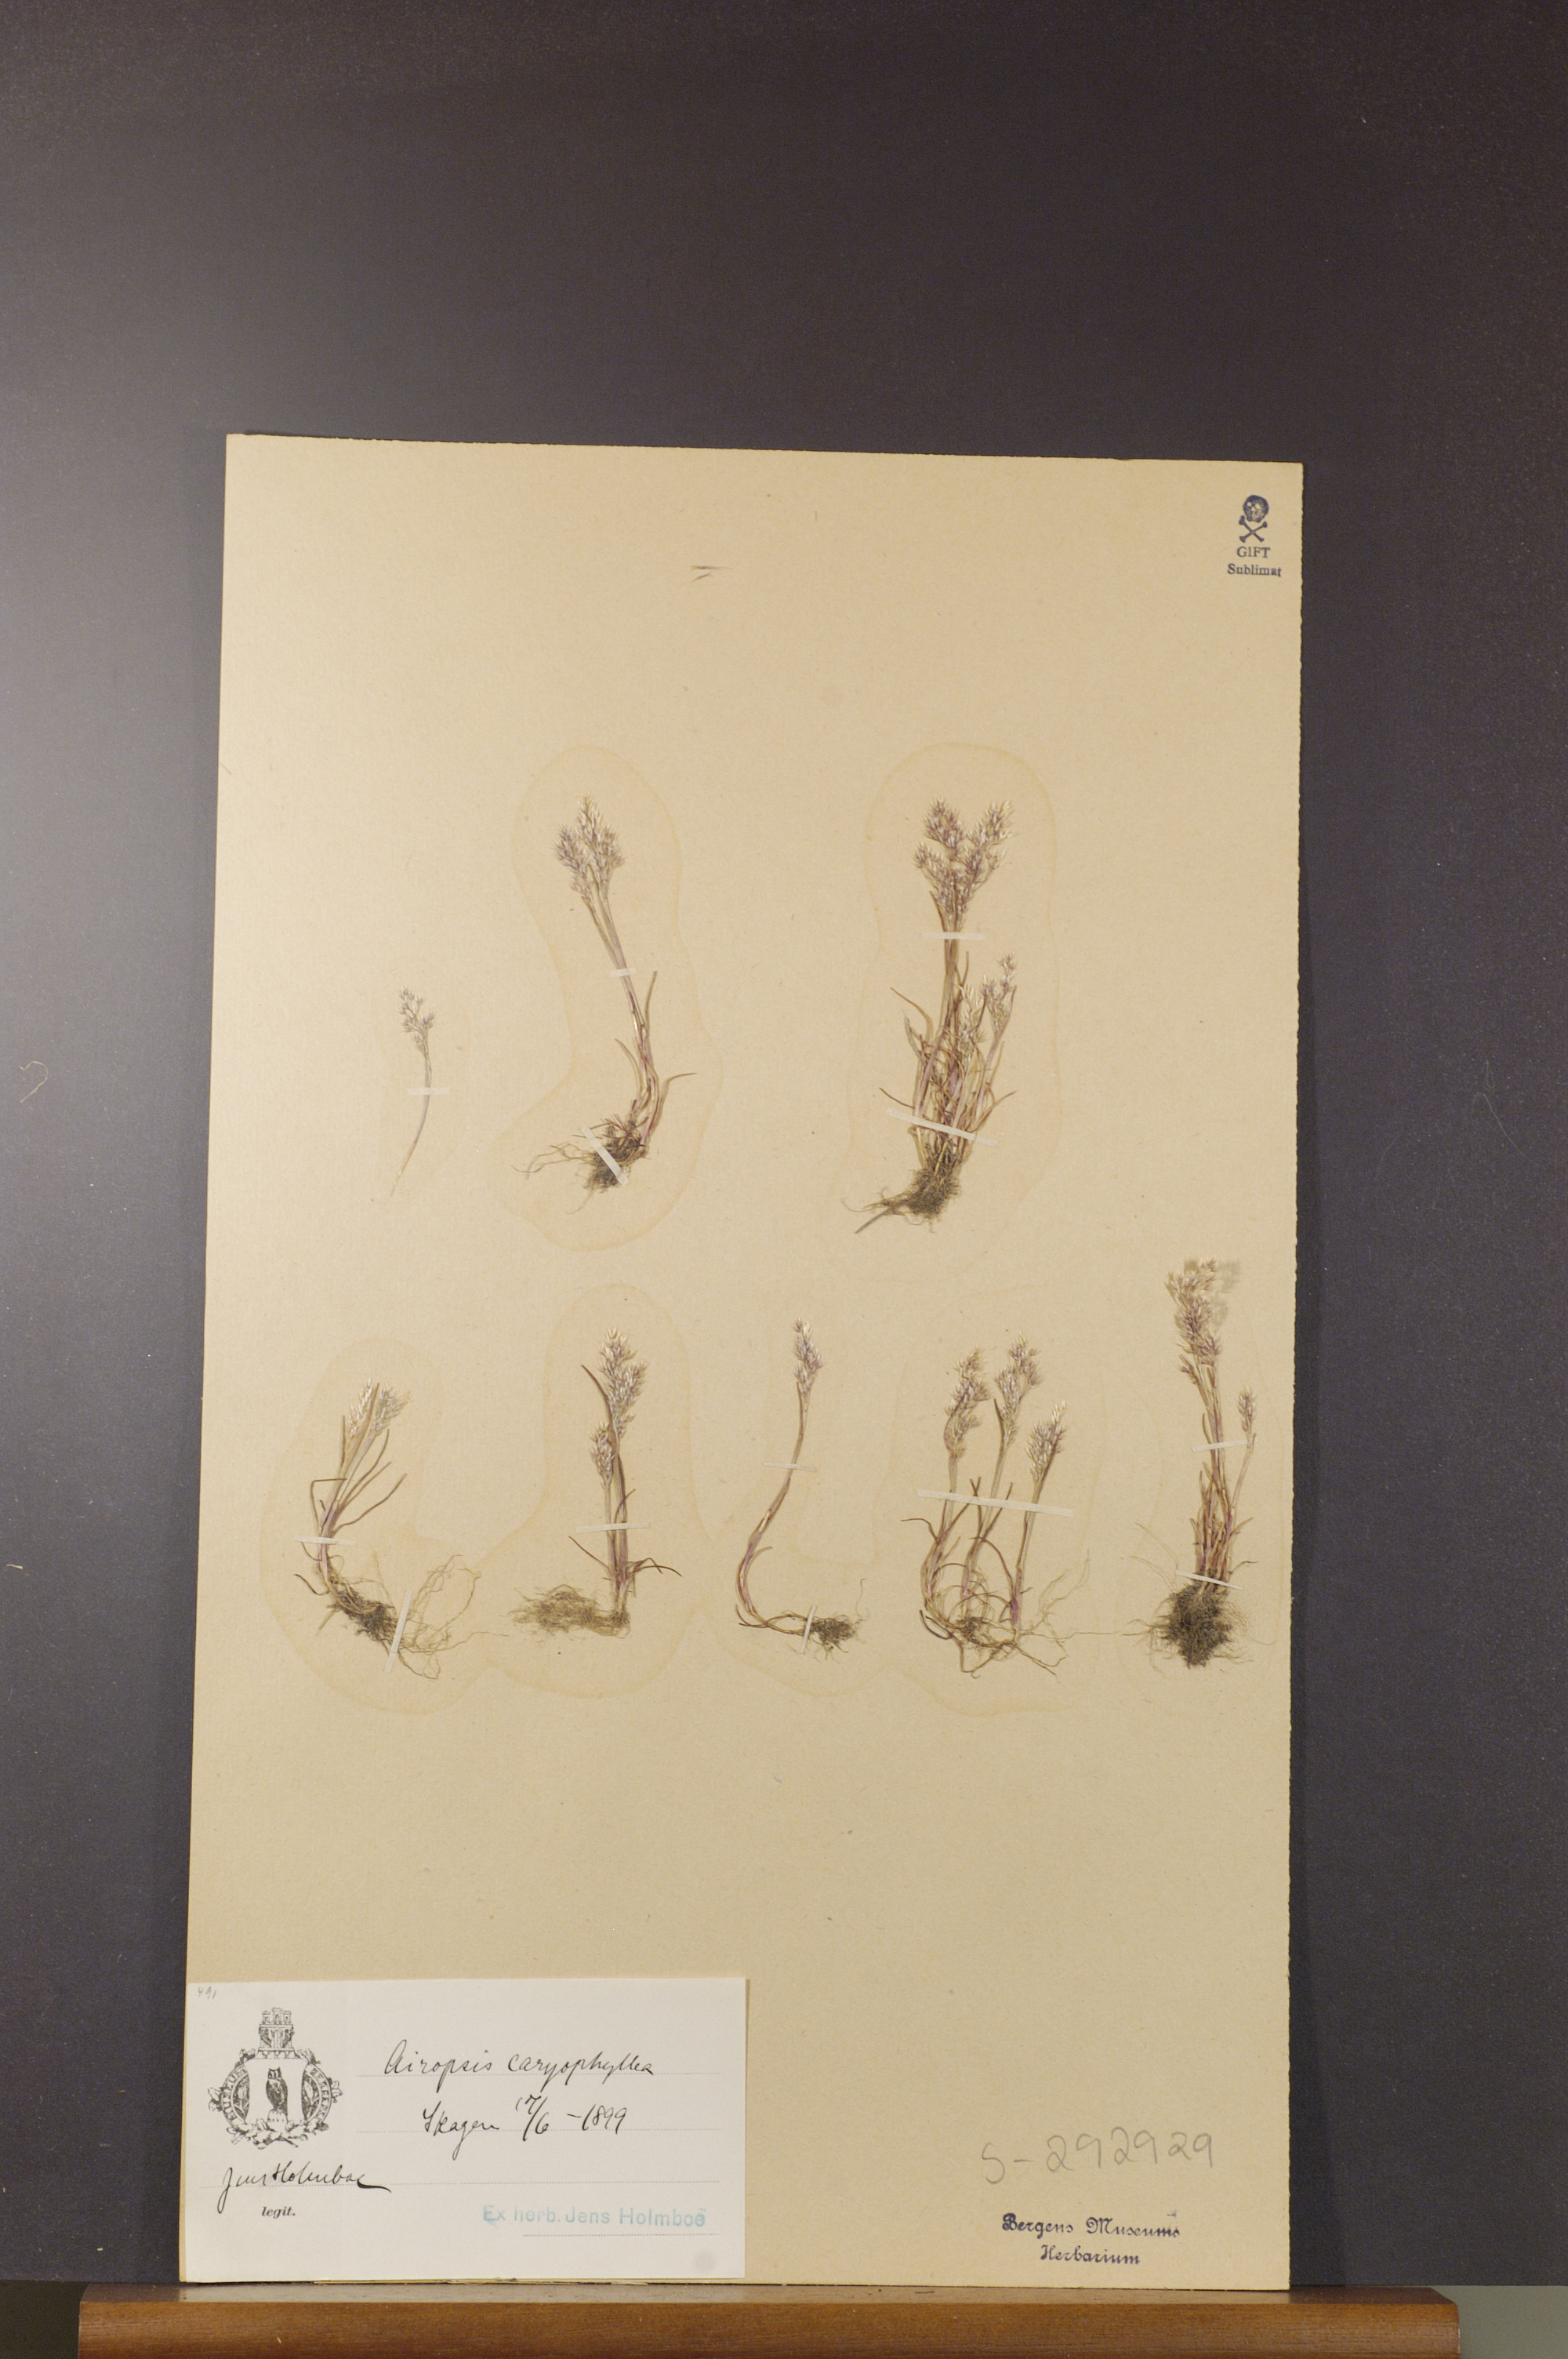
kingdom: Plantae
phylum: Tracheophyta
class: Liliopsida
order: Poales
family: Poaceae
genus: Aira
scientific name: Aira caryophyllea
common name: Silver hairgrass
